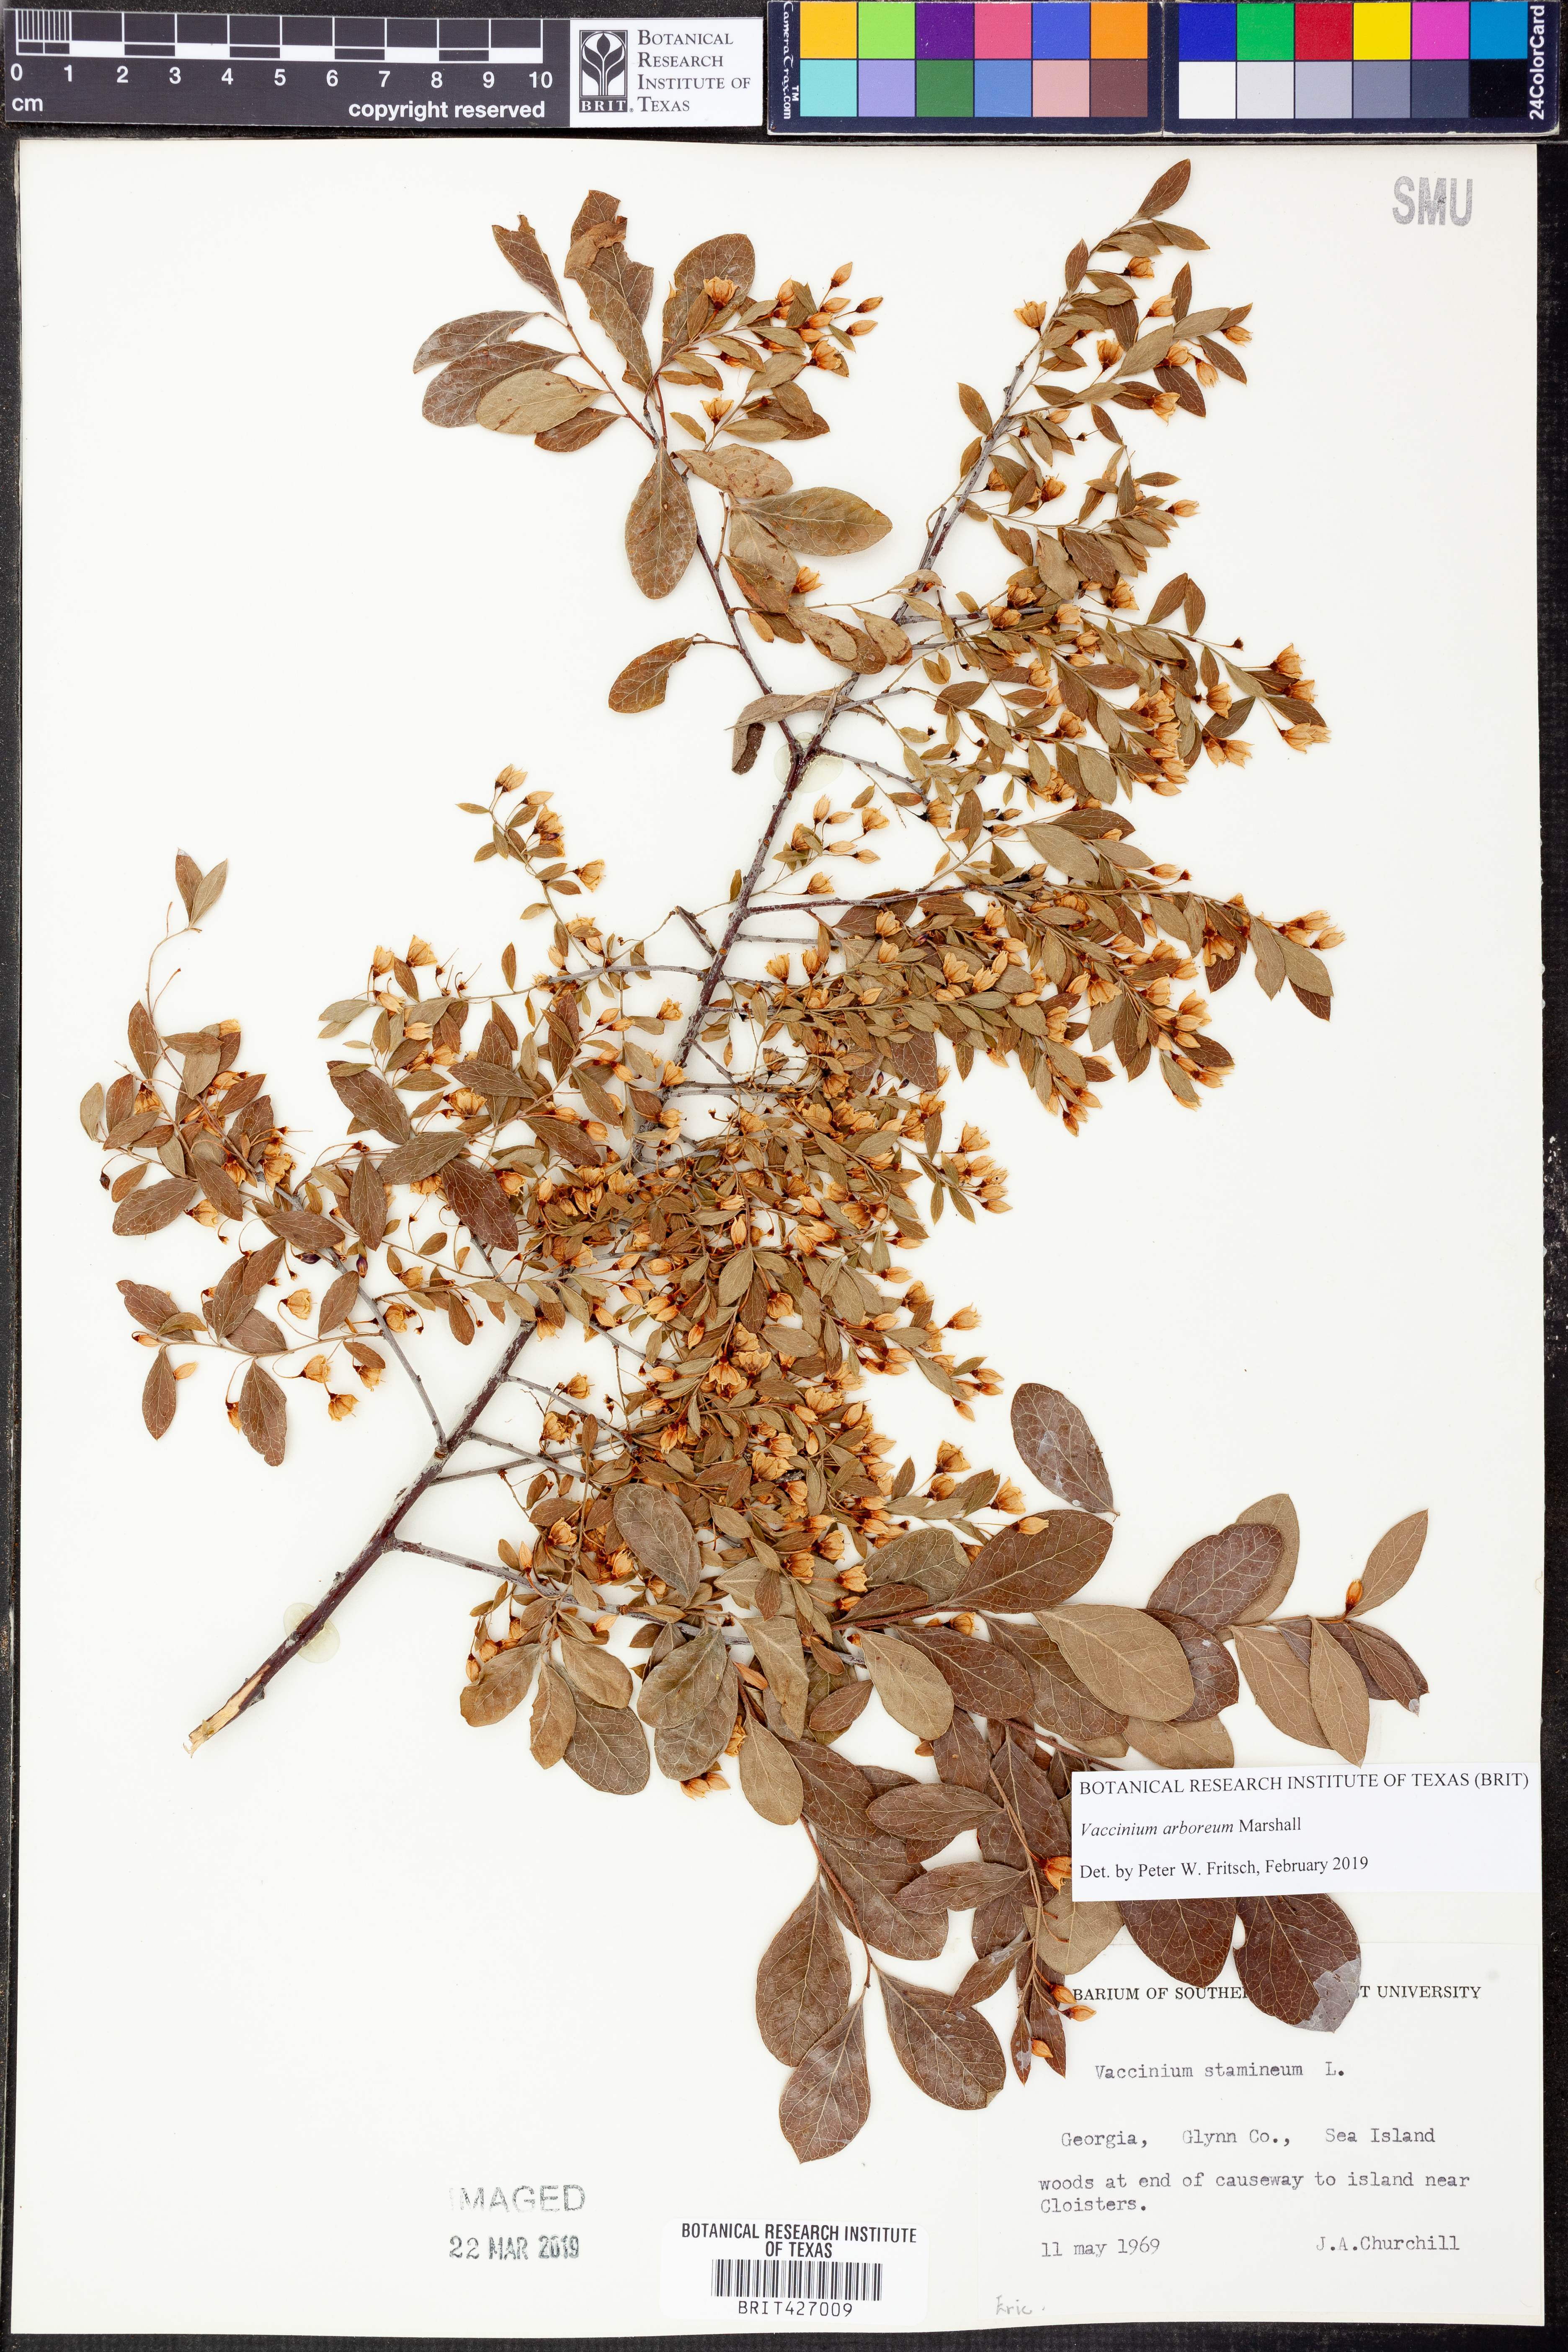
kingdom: Plantae
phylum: Tracheophyta
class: Magnoliopsida
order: Ericales
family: Ericaceae
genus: Vaccinium
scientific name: Vaccinium arboreum
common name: Farkleberry
